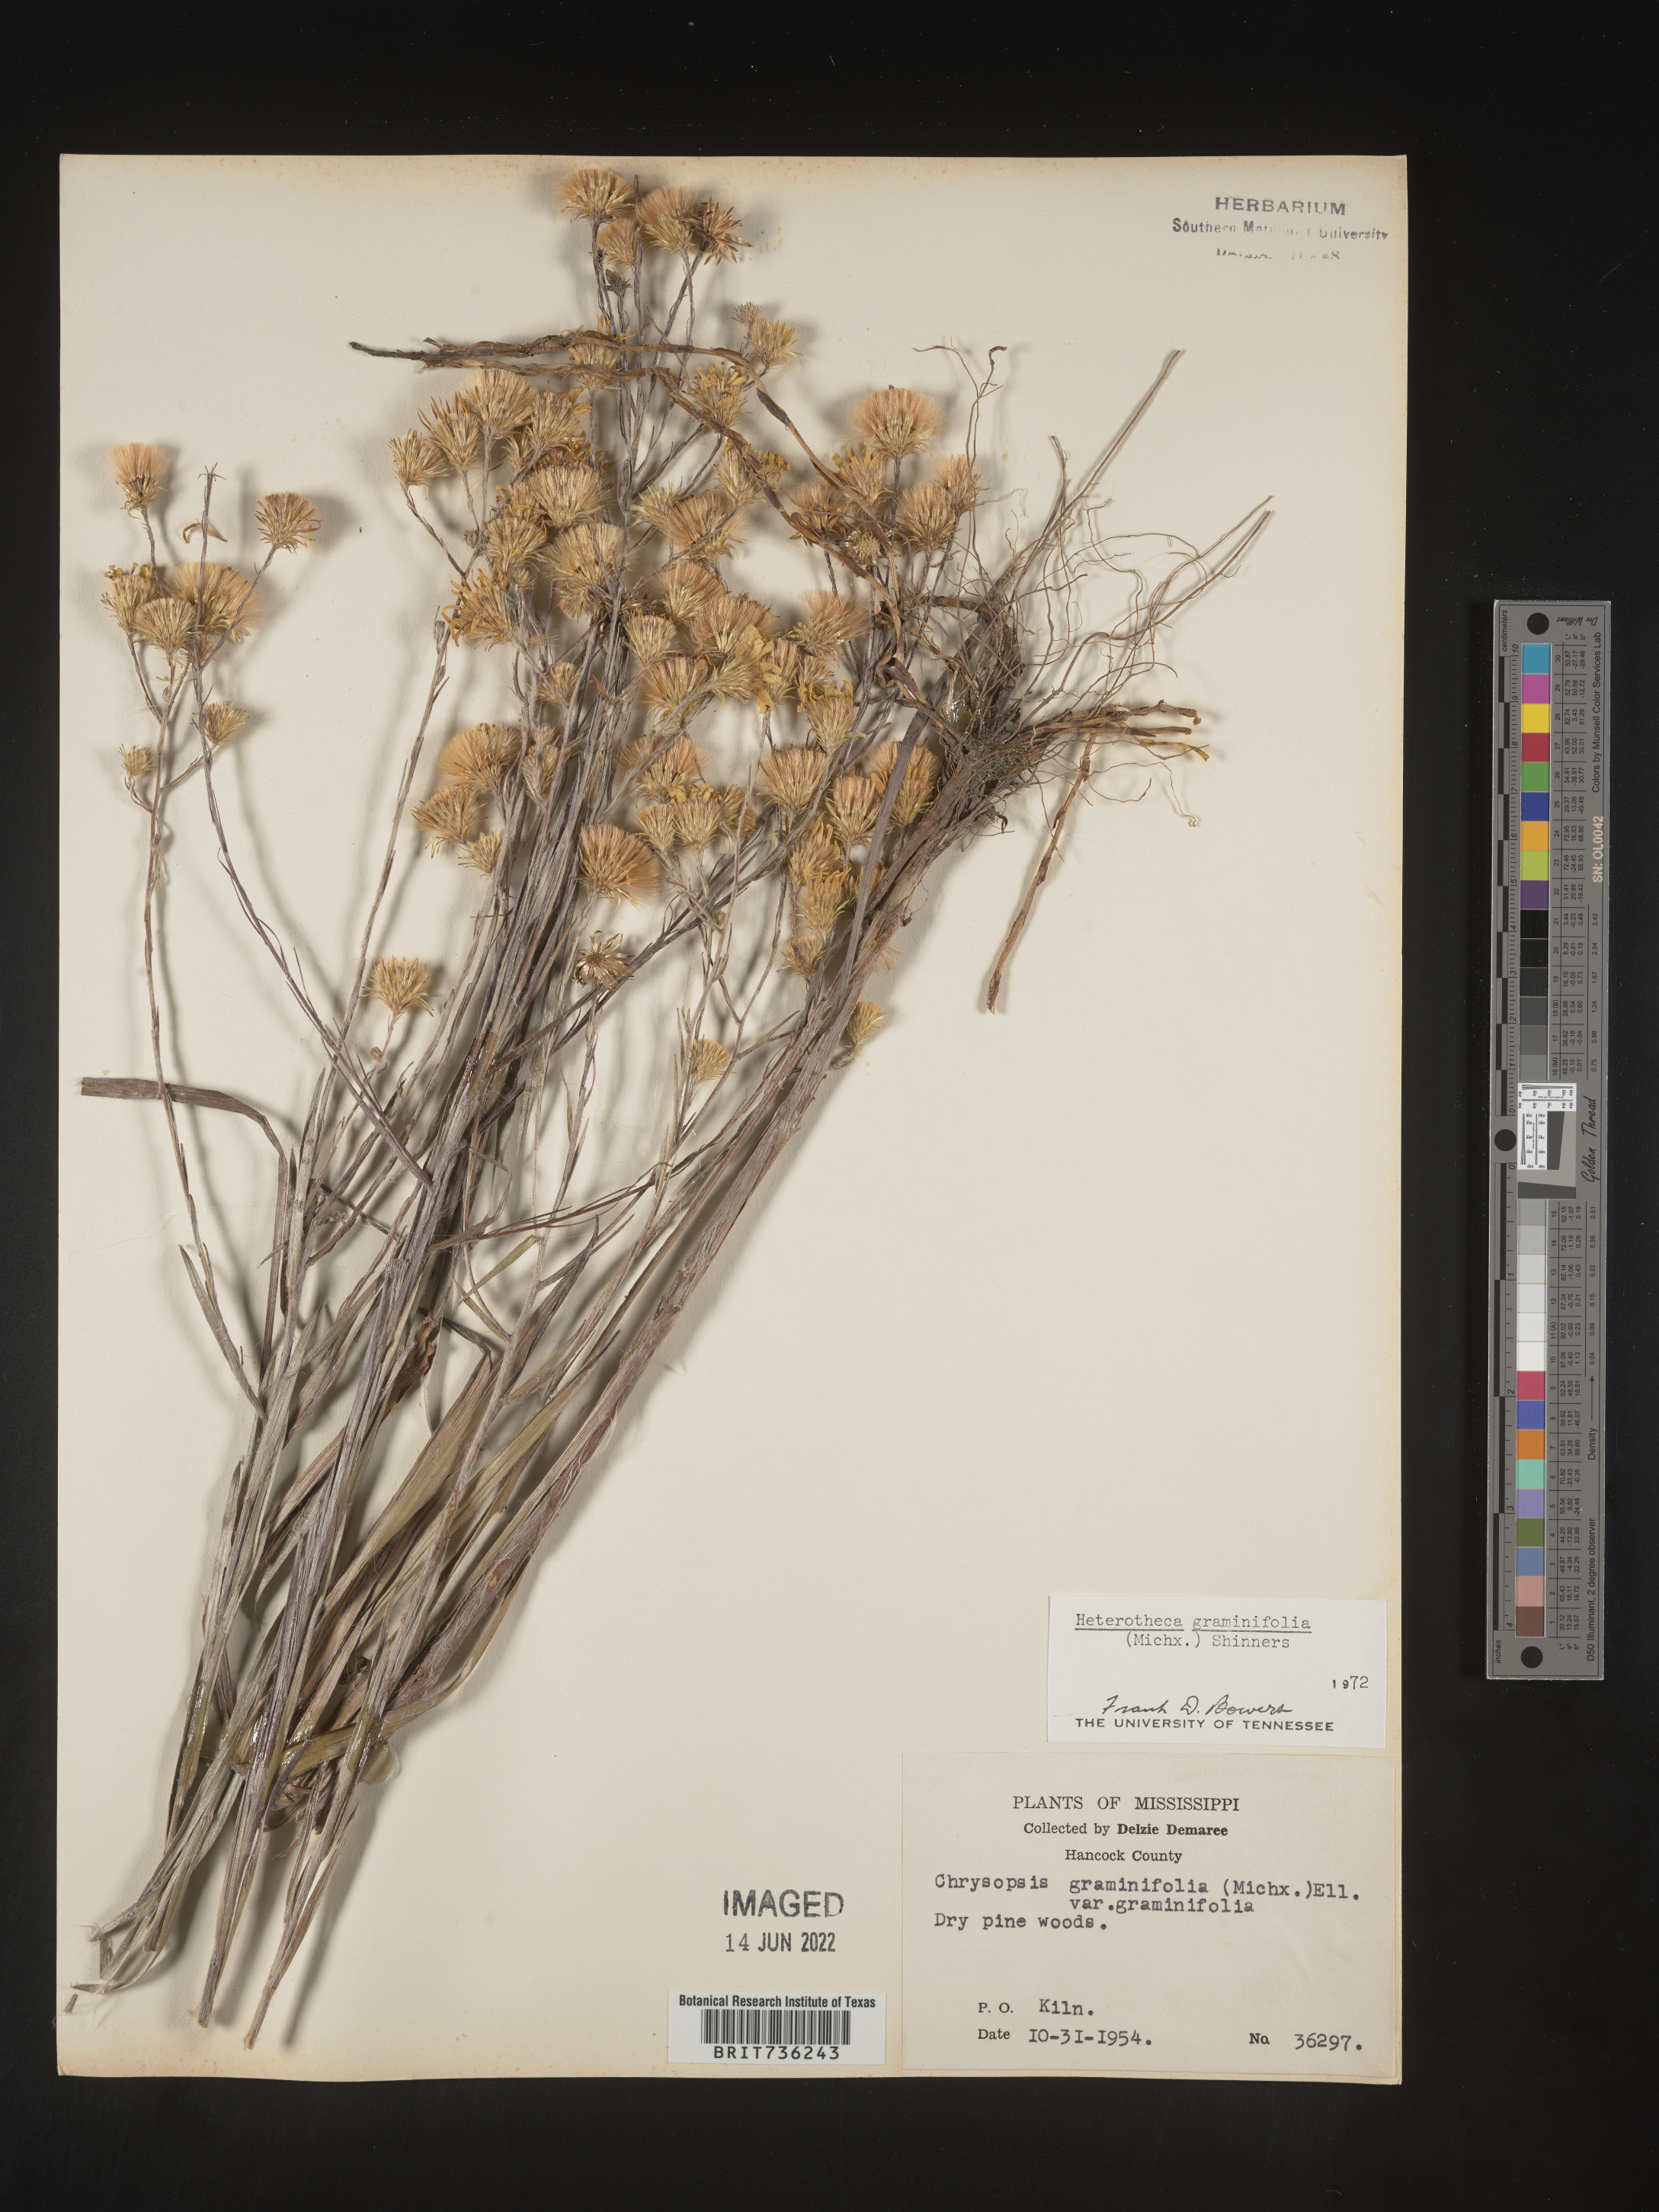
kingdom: Plantae
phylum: Tracheophyta
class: Magnoliopsida
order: Asterales
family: Asteraceae
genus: Pityopsis
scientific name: Pityopsis graminifolia
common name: Grass-leaf golden-aster
